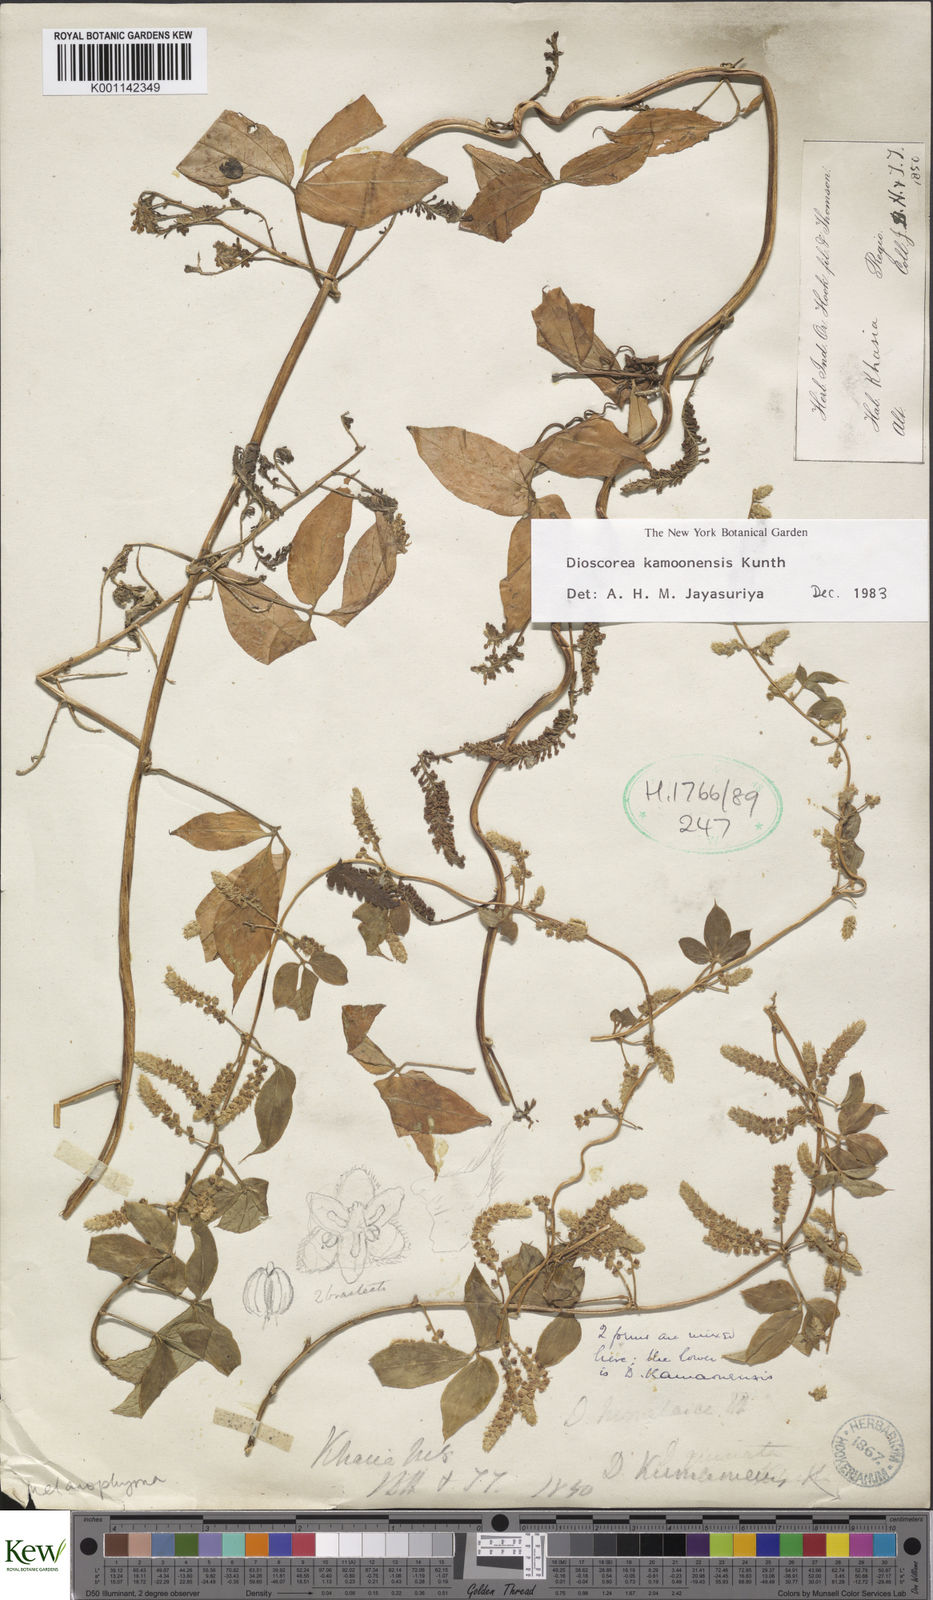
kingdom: Plantae
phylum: Tracheophyta
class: Liliopsida
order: Dioscoreales
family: Dioscoreaceae
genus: Dioscorea
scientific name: Dioscorea kamoonensis
